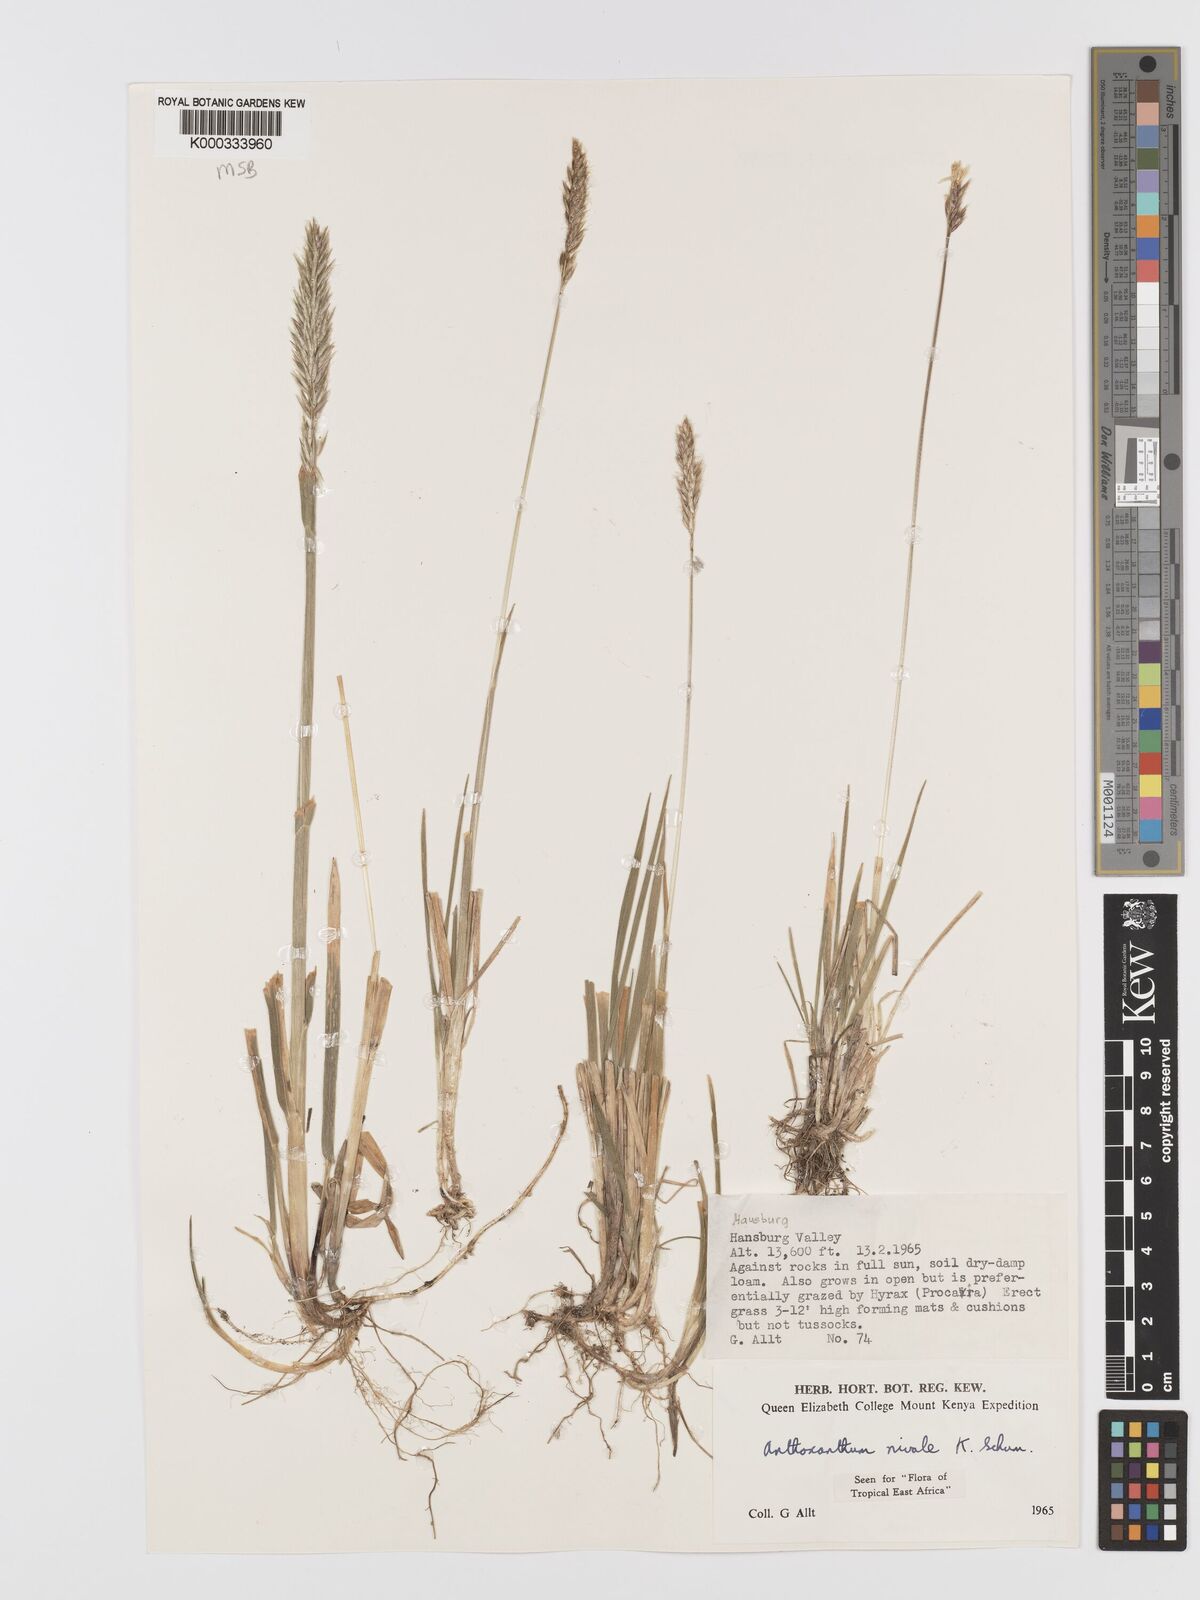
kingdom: Plantae
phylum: Tracheophyta
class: Liliopsida
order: Poales
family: Poaceae
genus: Anthoxanthum
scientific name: Anthoxanthum
